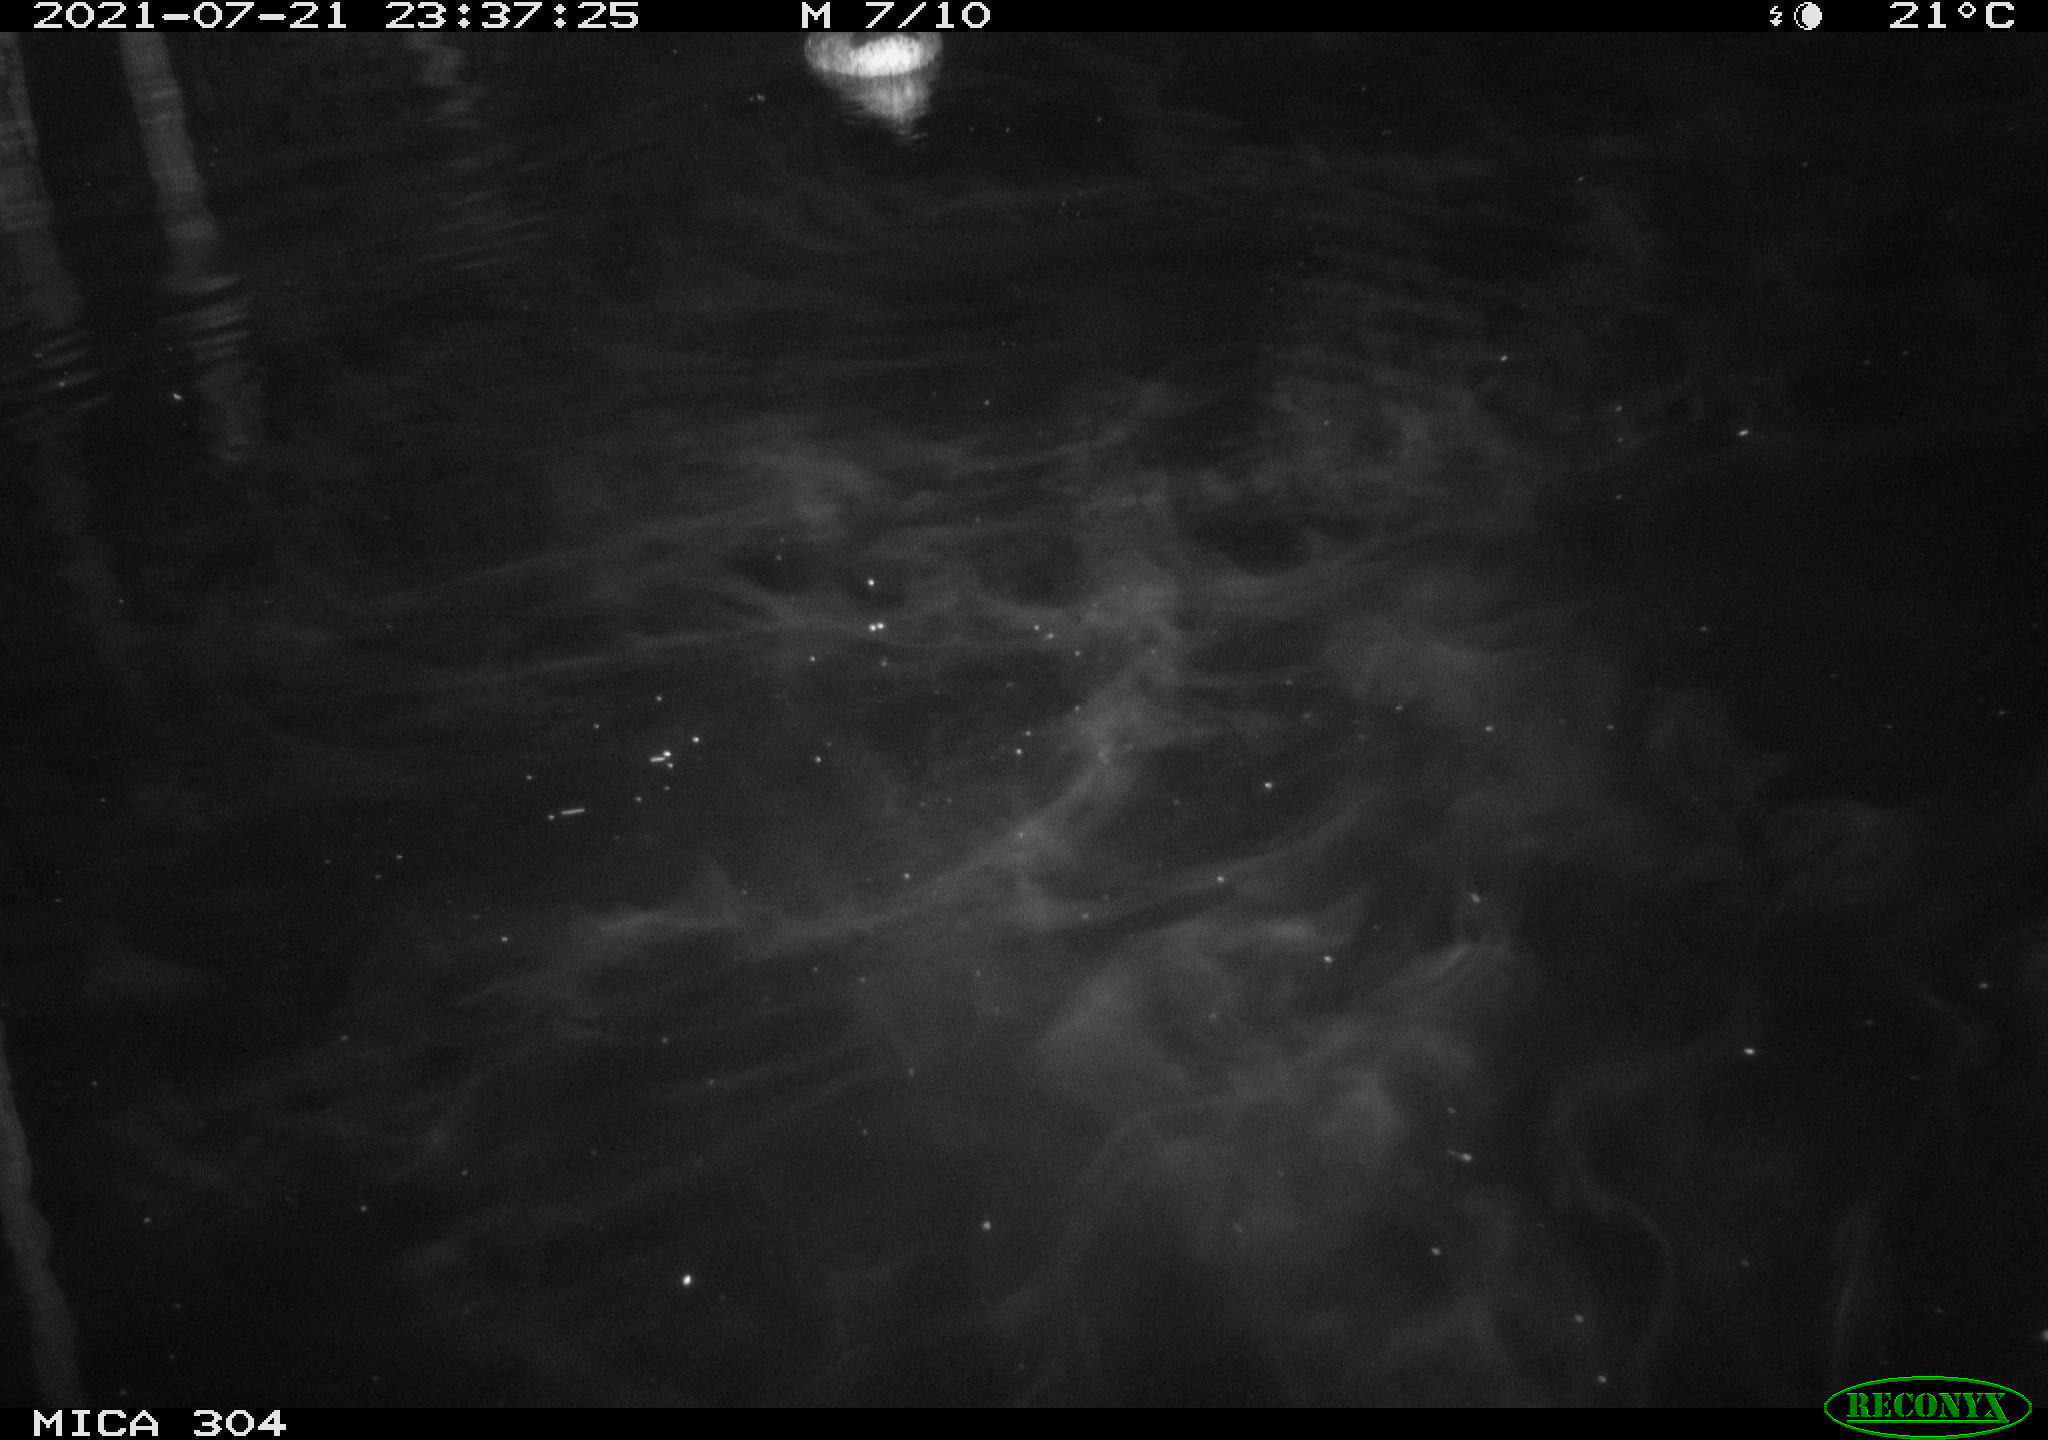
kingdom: Animalia
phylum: Chordata
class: Aves
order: Anseriformes
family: Anatidae
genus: Anas
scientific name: Anas platyrhynchos
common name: Mallard
